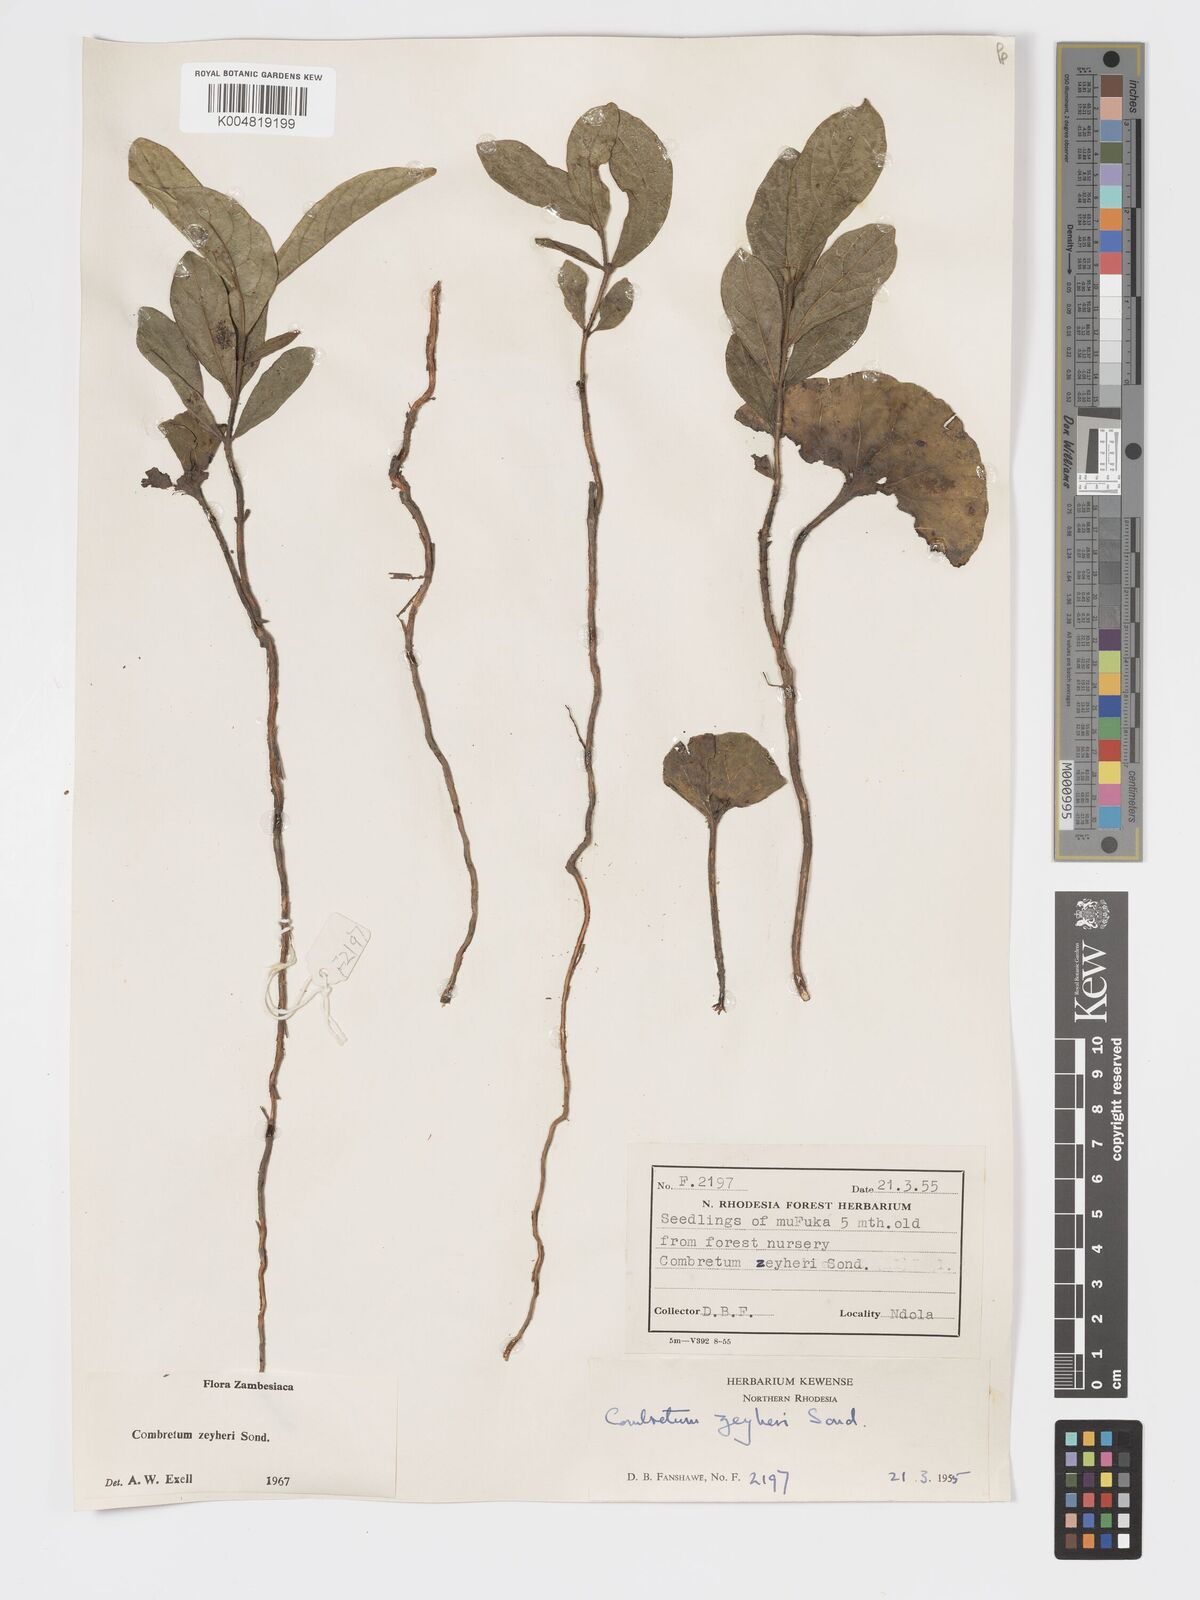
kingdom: Plantae
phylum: Tracheophyta
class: Magnoliopsida
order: Myrtales
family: Combretaceae
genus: Combretum
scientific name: Combretum zeyheri
